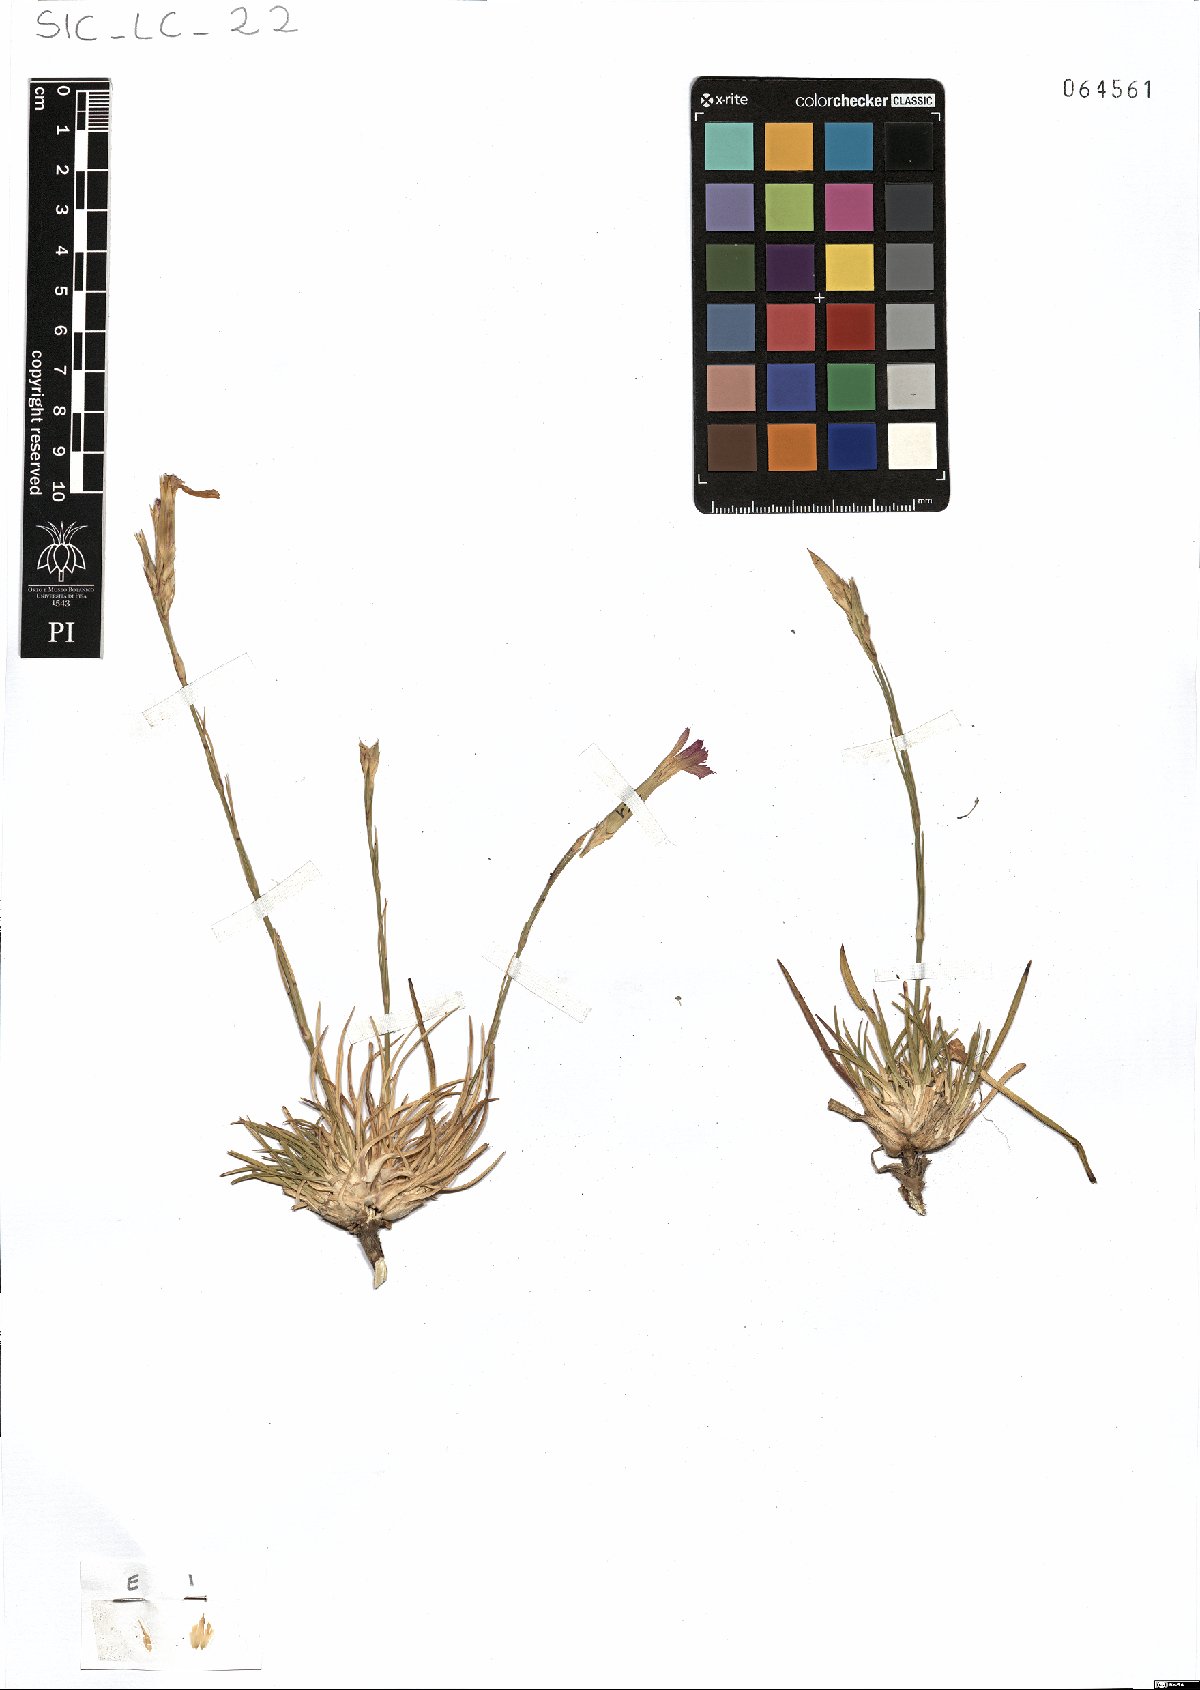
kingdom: Plantae
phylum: Tracheophyta
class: Magnoliopsida
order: Caryophyllales
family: Caryophyllaceae
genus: Dianthus
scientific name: Dianthus siculus
